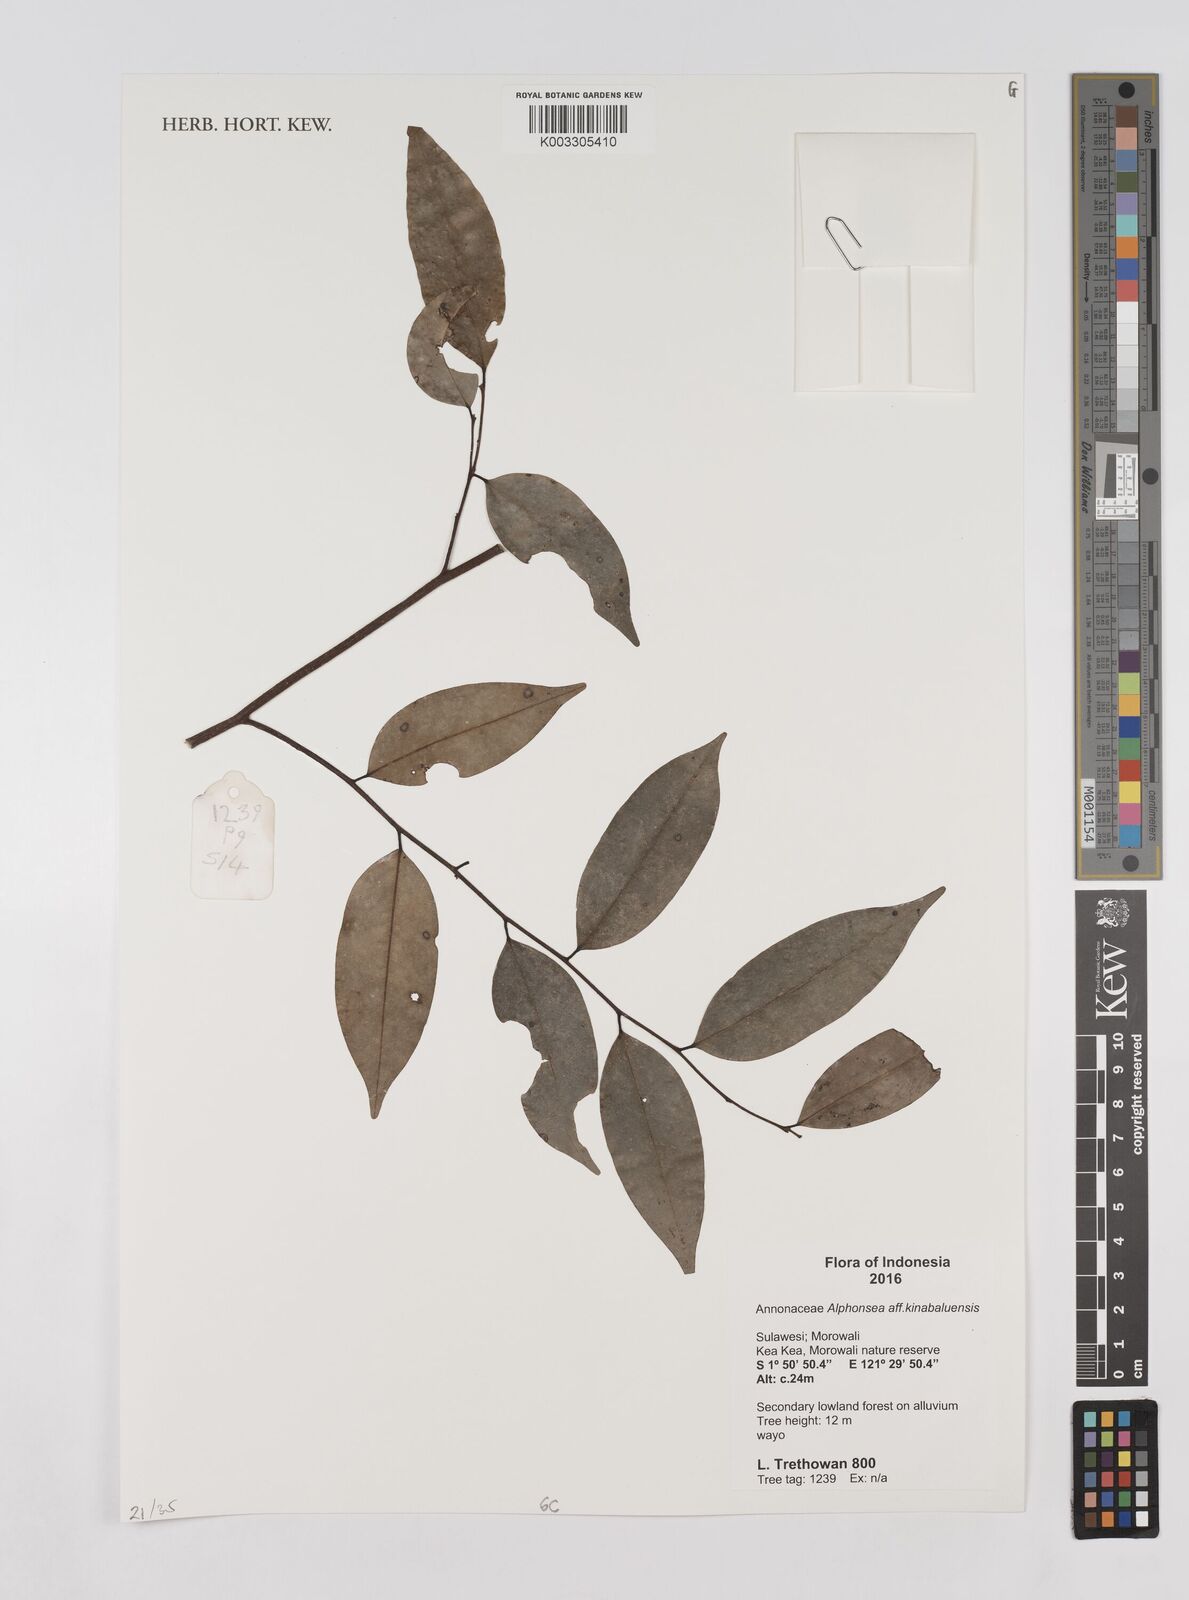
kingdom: Plantae
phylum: Tracheophyta
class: Magnoliopsida
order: Magnoliales
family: Annonaceae
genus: Alphonsea
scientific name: Alphonsea kinabaluensis
